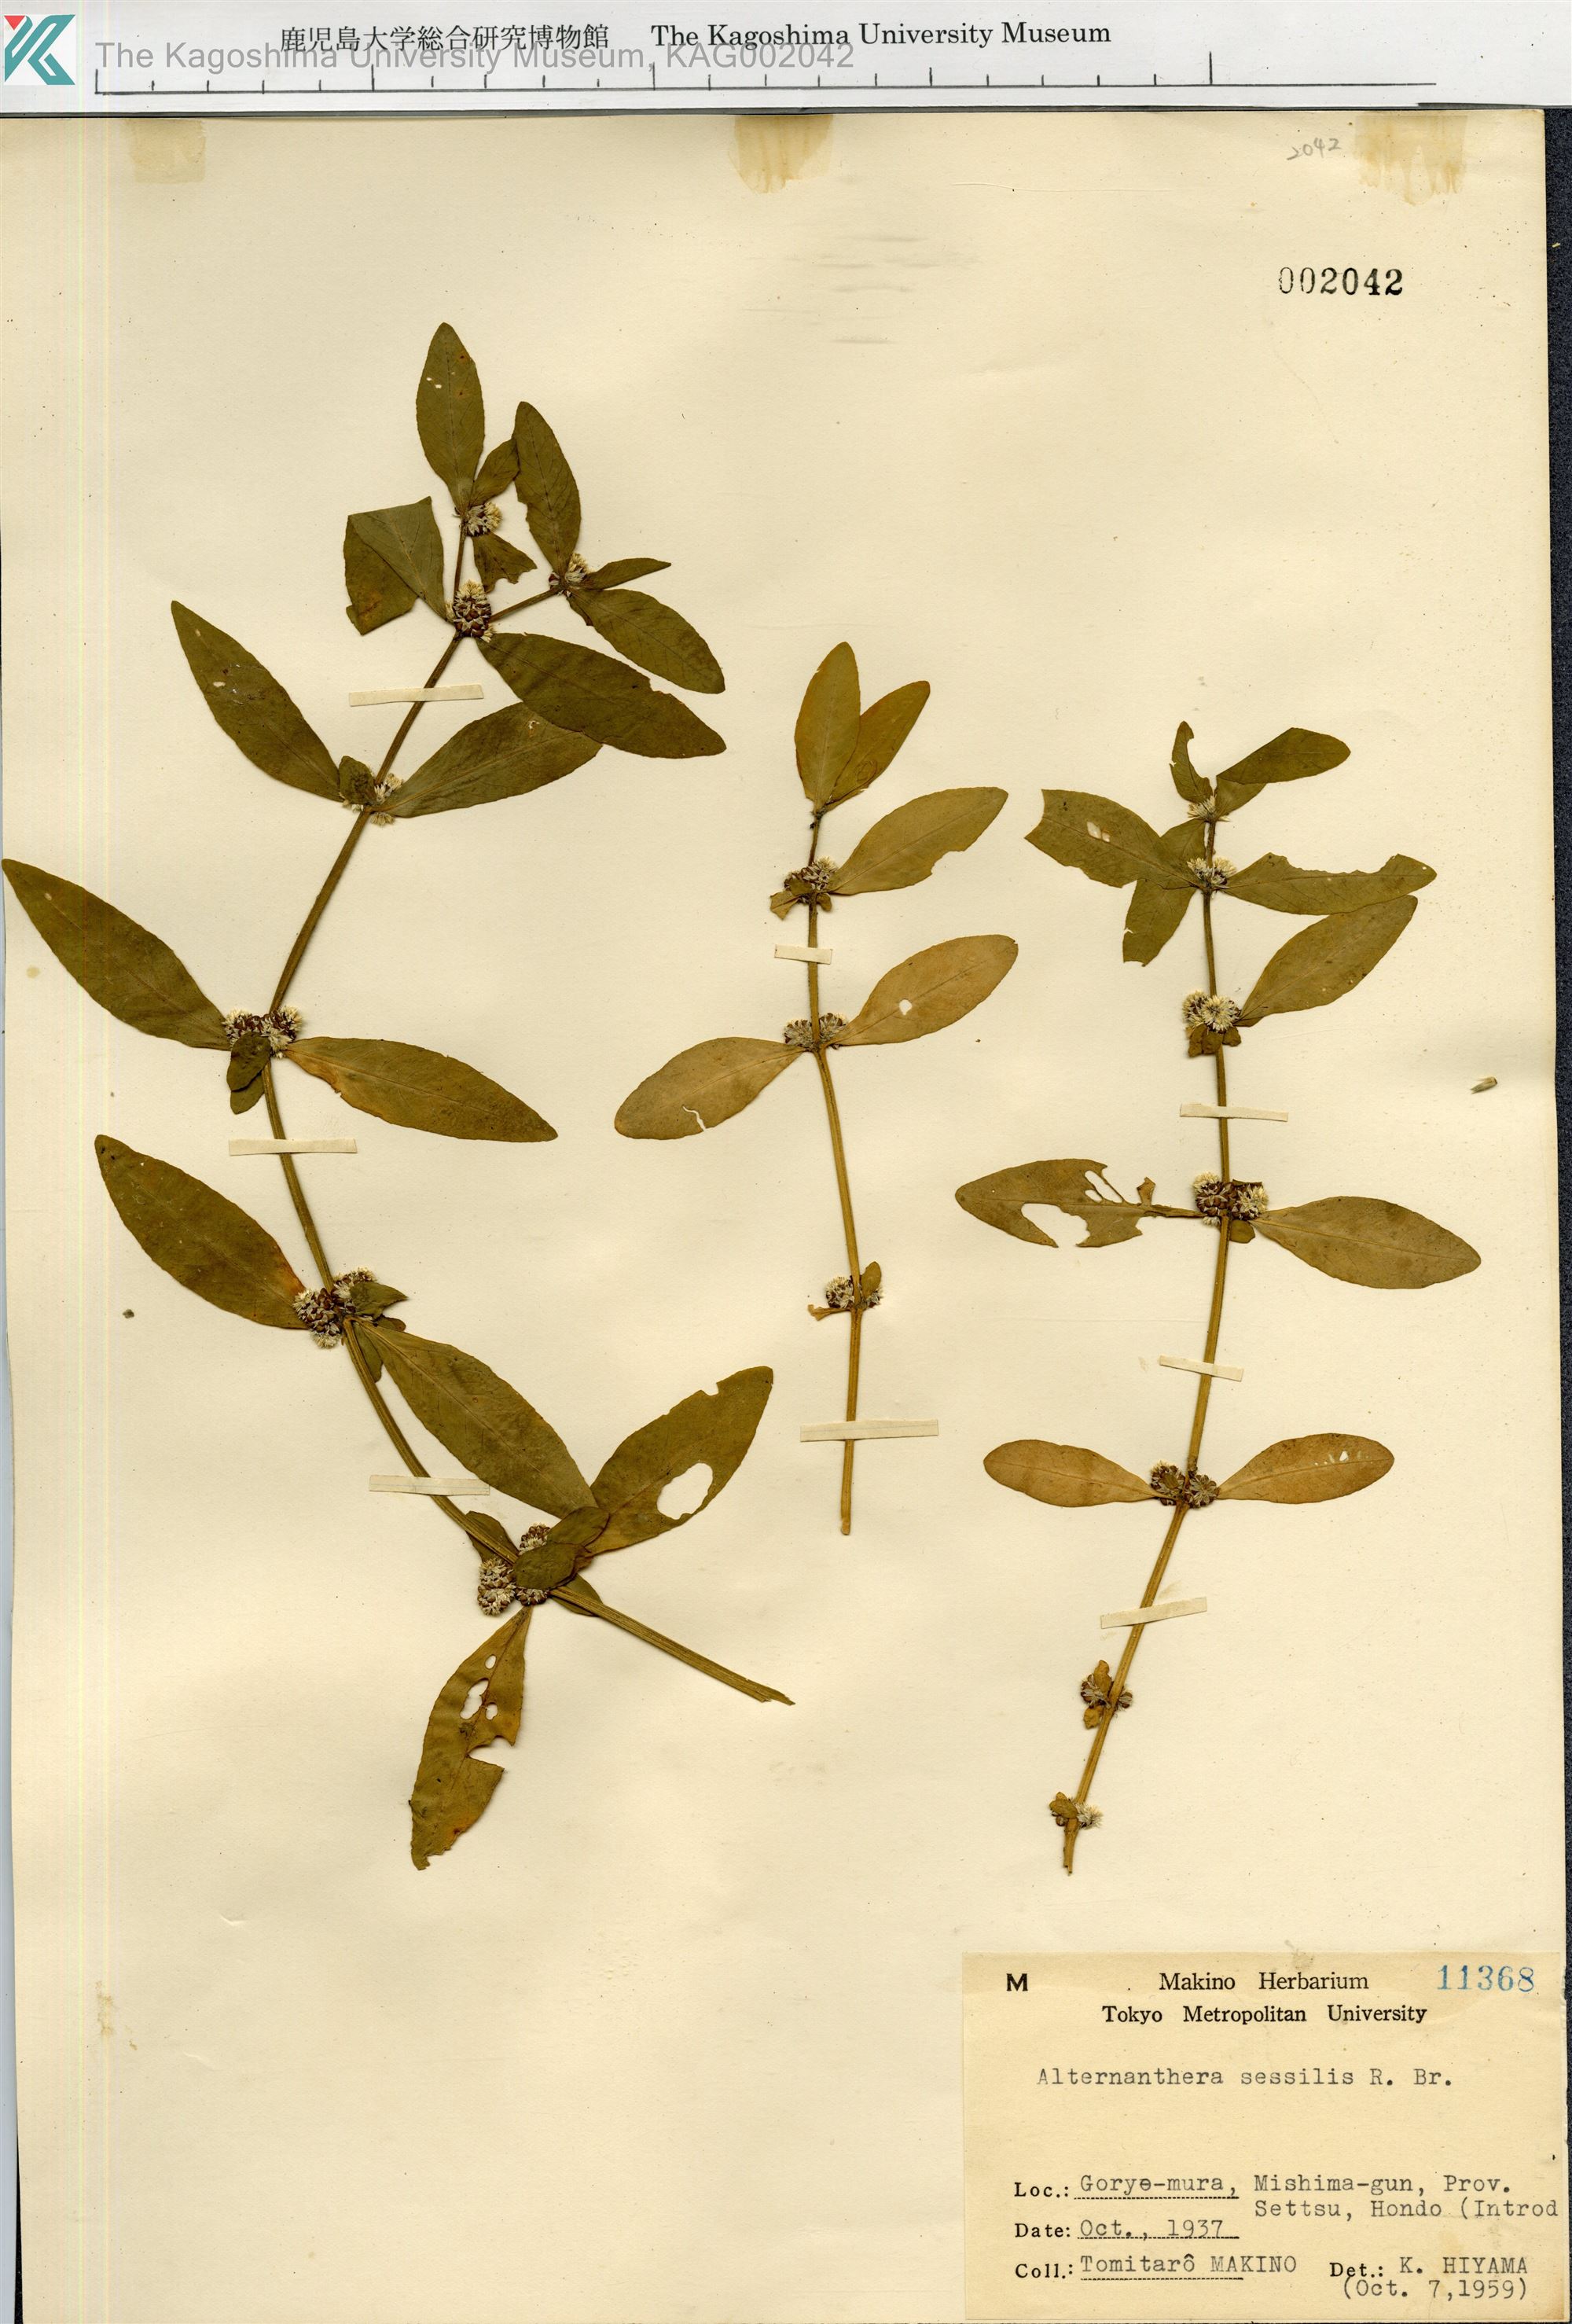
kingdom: Plantae
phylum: Tracheophyta
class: Magnoliopsida
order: Caryophyllales
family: Amaranthaceae
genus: Alternanthera
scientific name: Alternanthera sessilis
